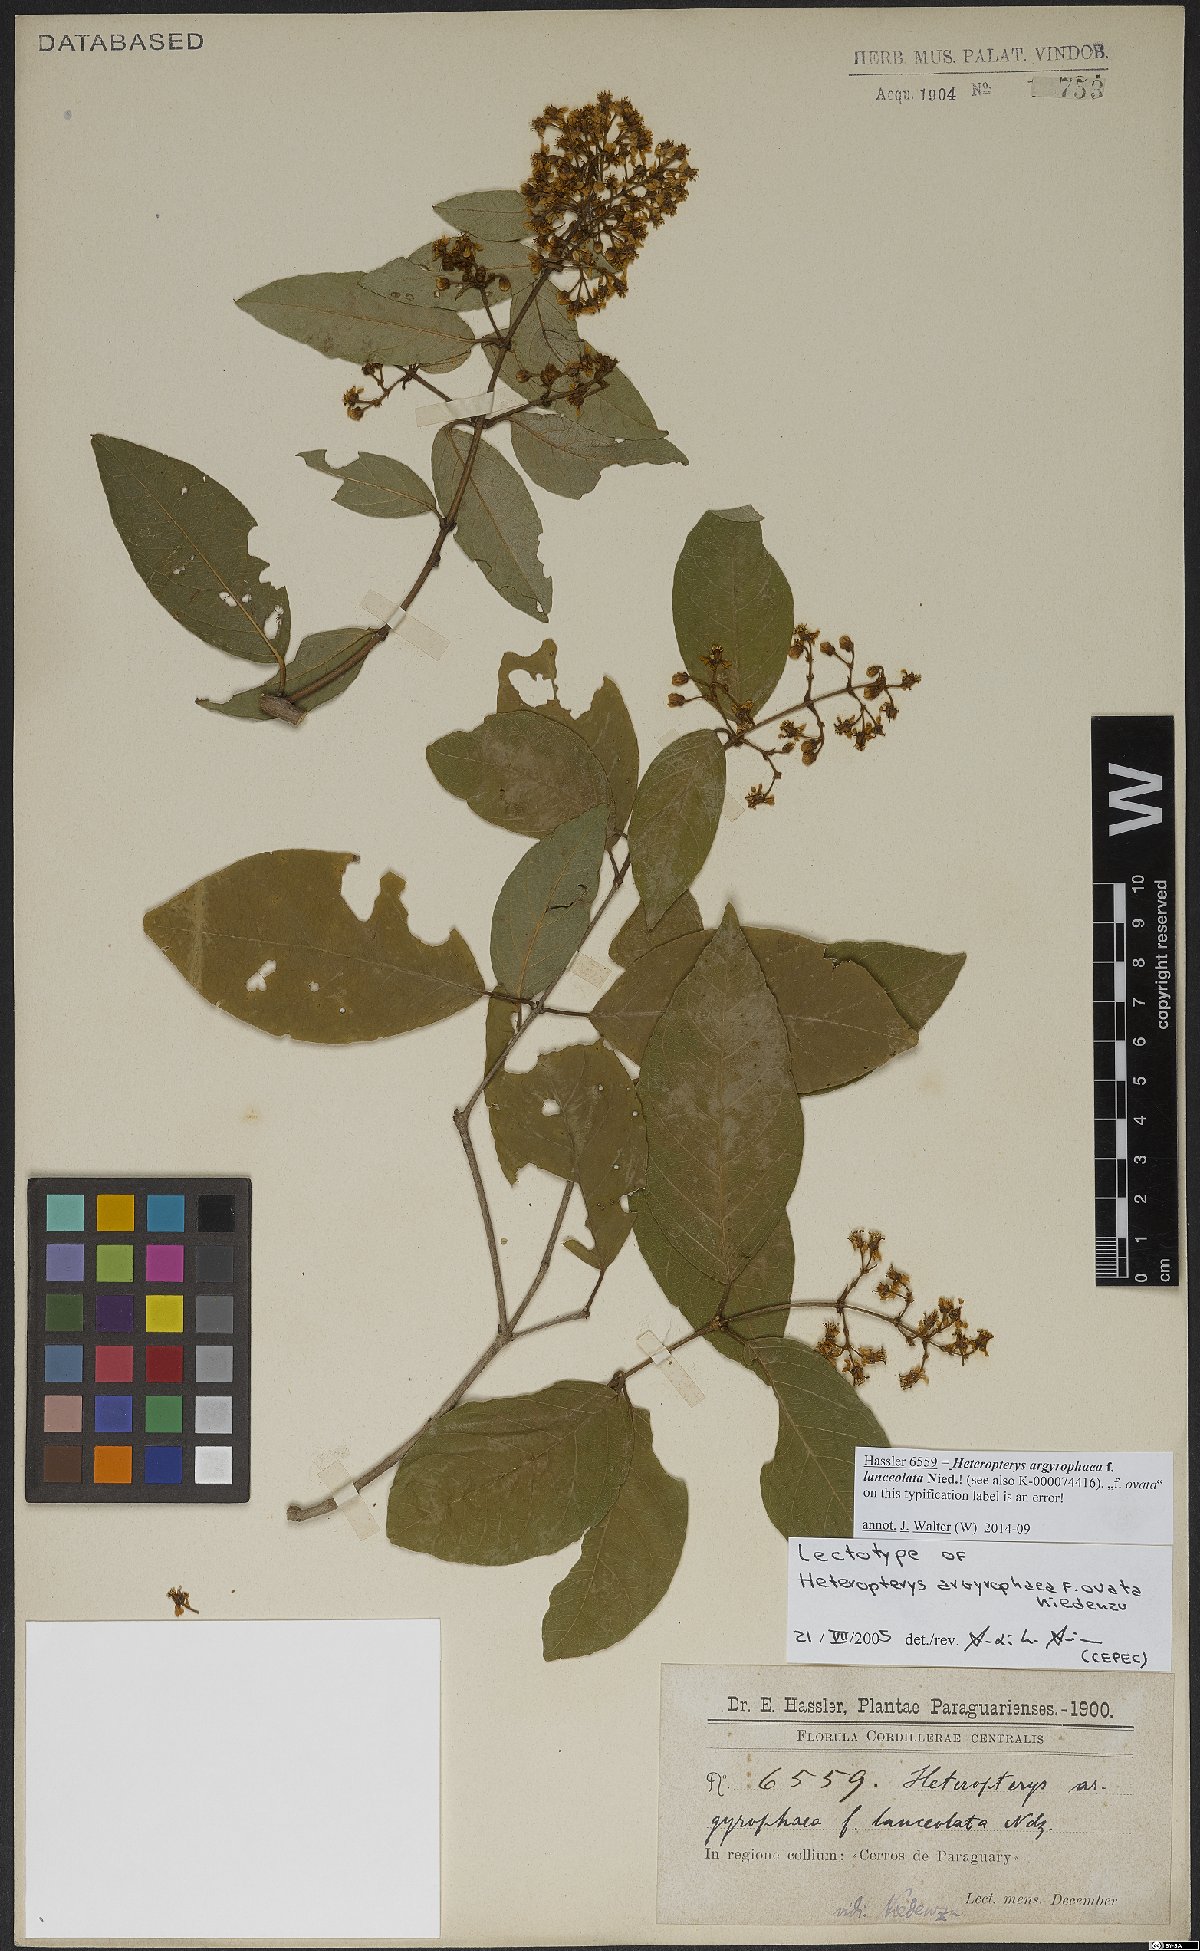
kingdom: Plantae
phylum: Tracheophyta
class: Magnoliopsida
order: Malpighiales
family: Malpighiaceae
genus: Heteropterys
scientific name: Heteropterys argyrophaea
